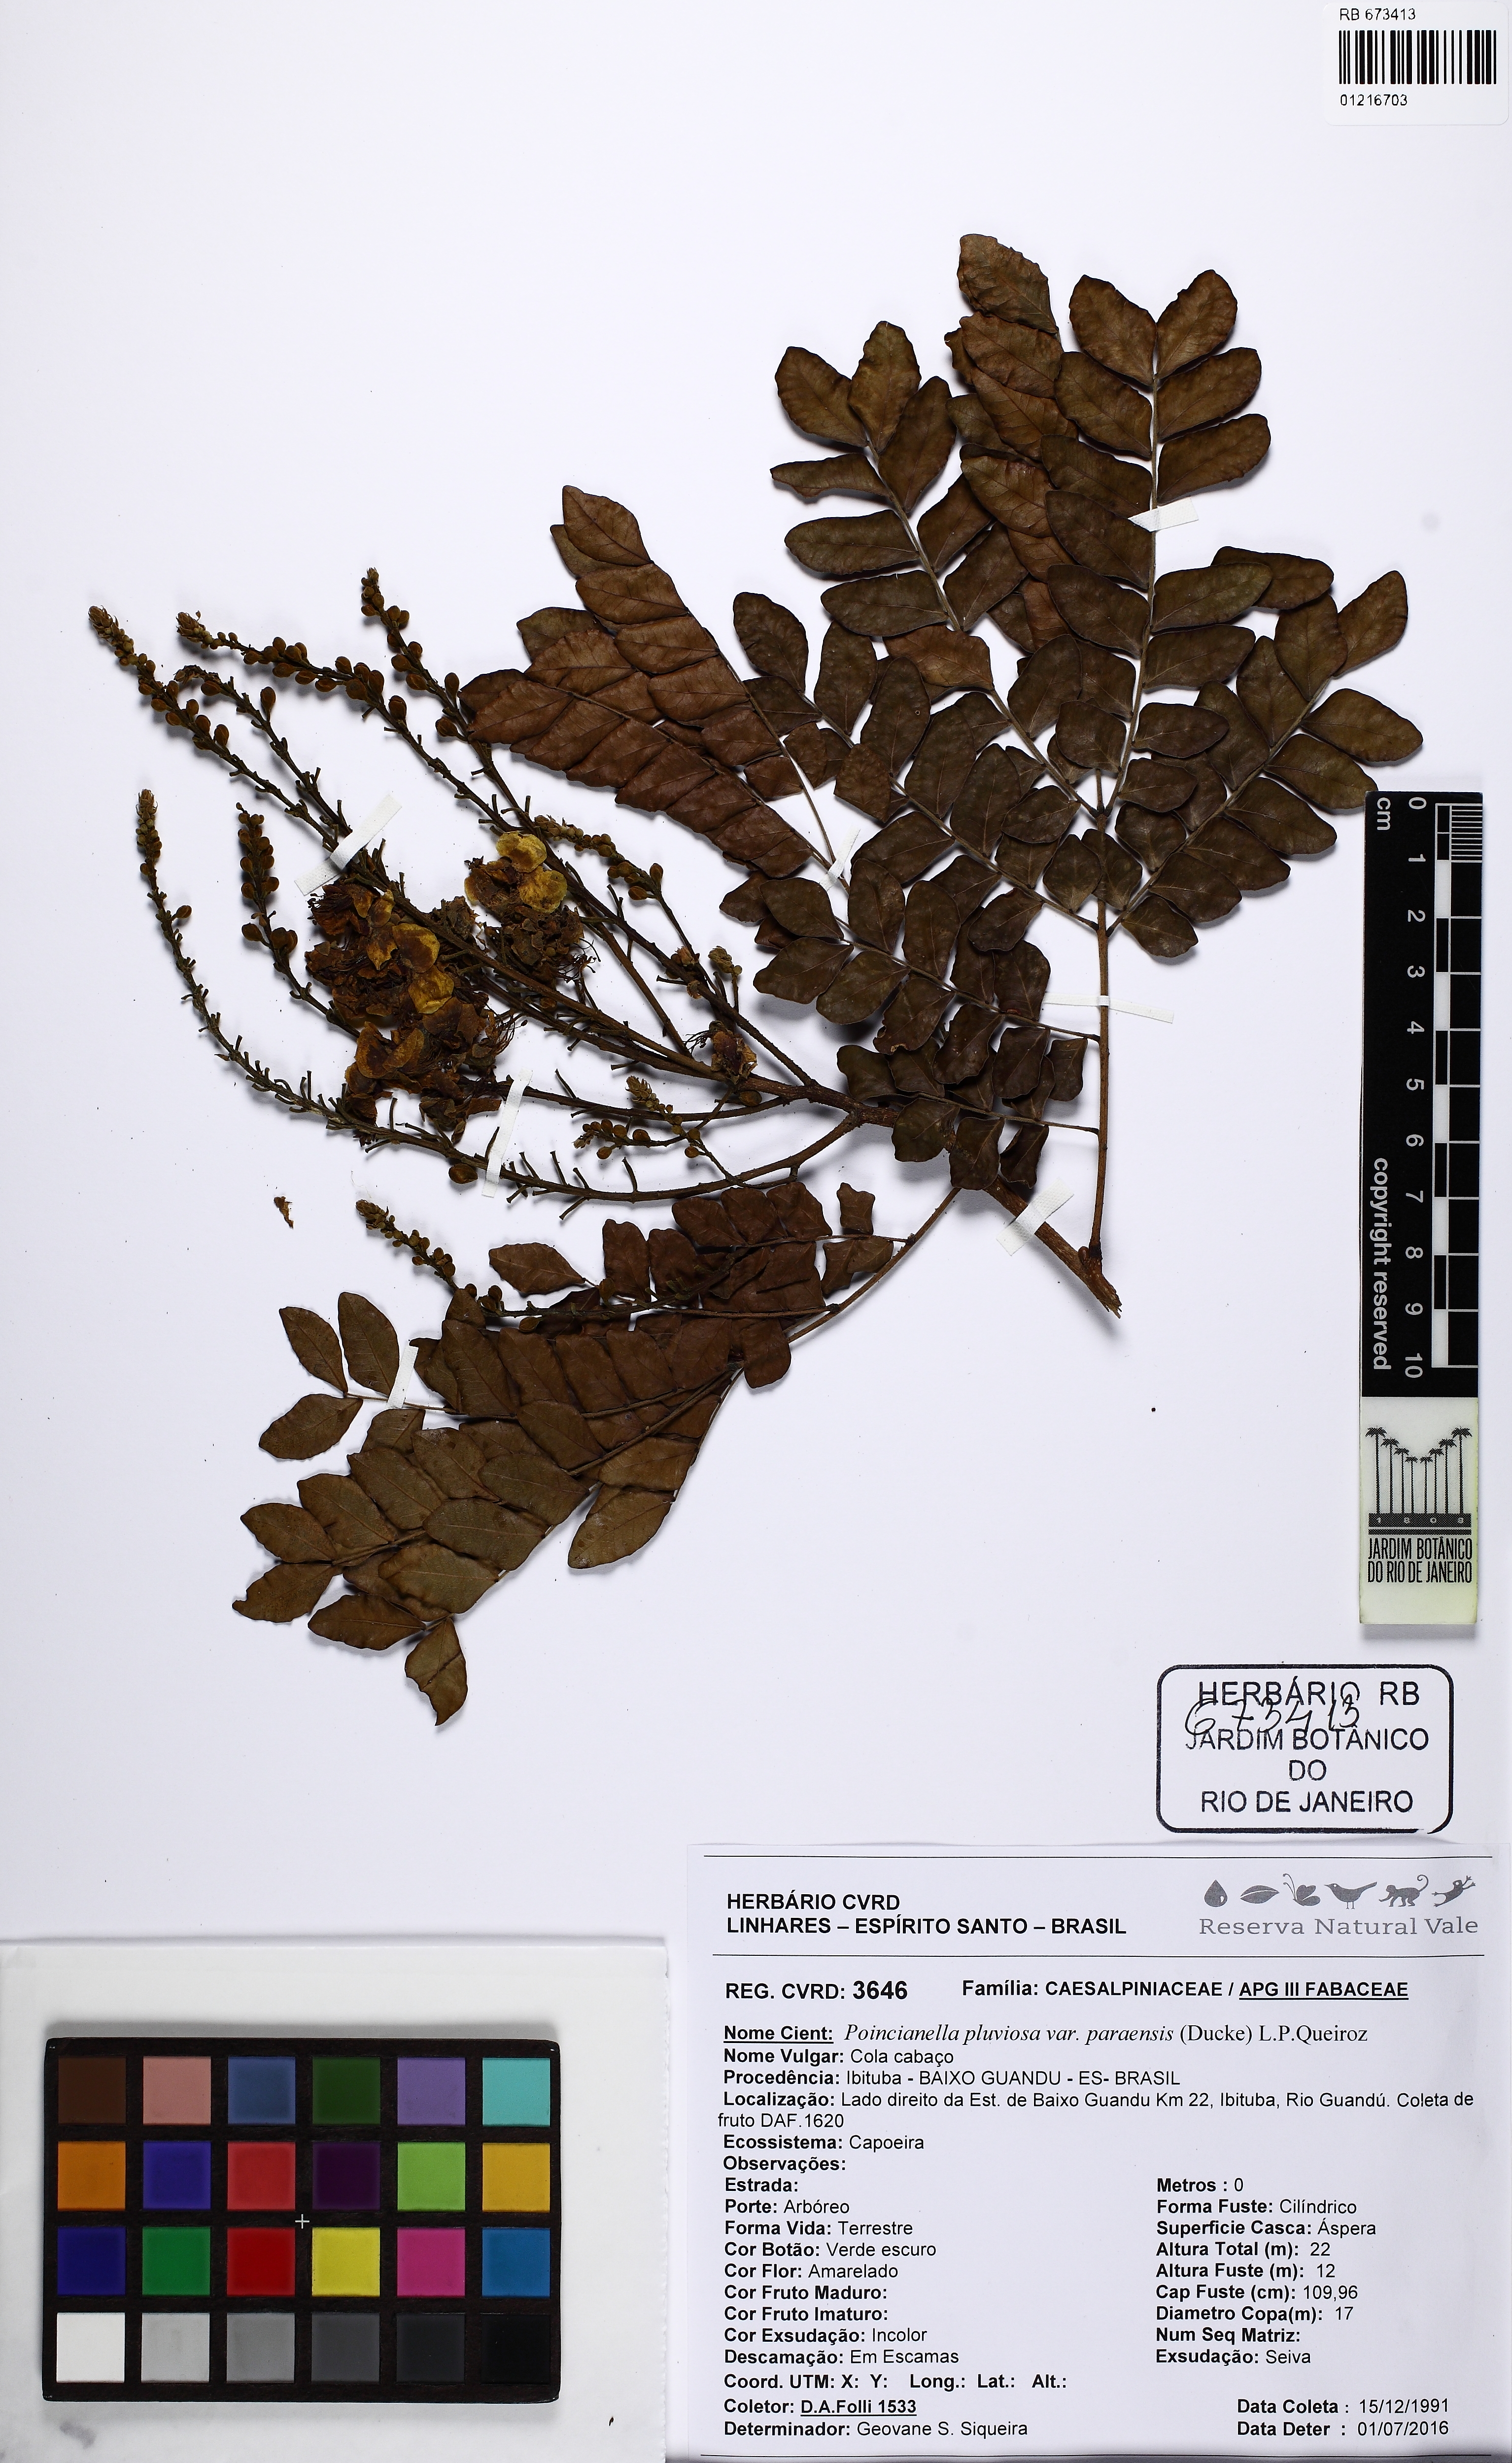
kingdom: Plantae
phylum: Tracheophyta
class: Magnoliopsida
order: Fabales
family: Fabaceae
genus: Cenostigma
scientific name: Cenostigma pluviosum
